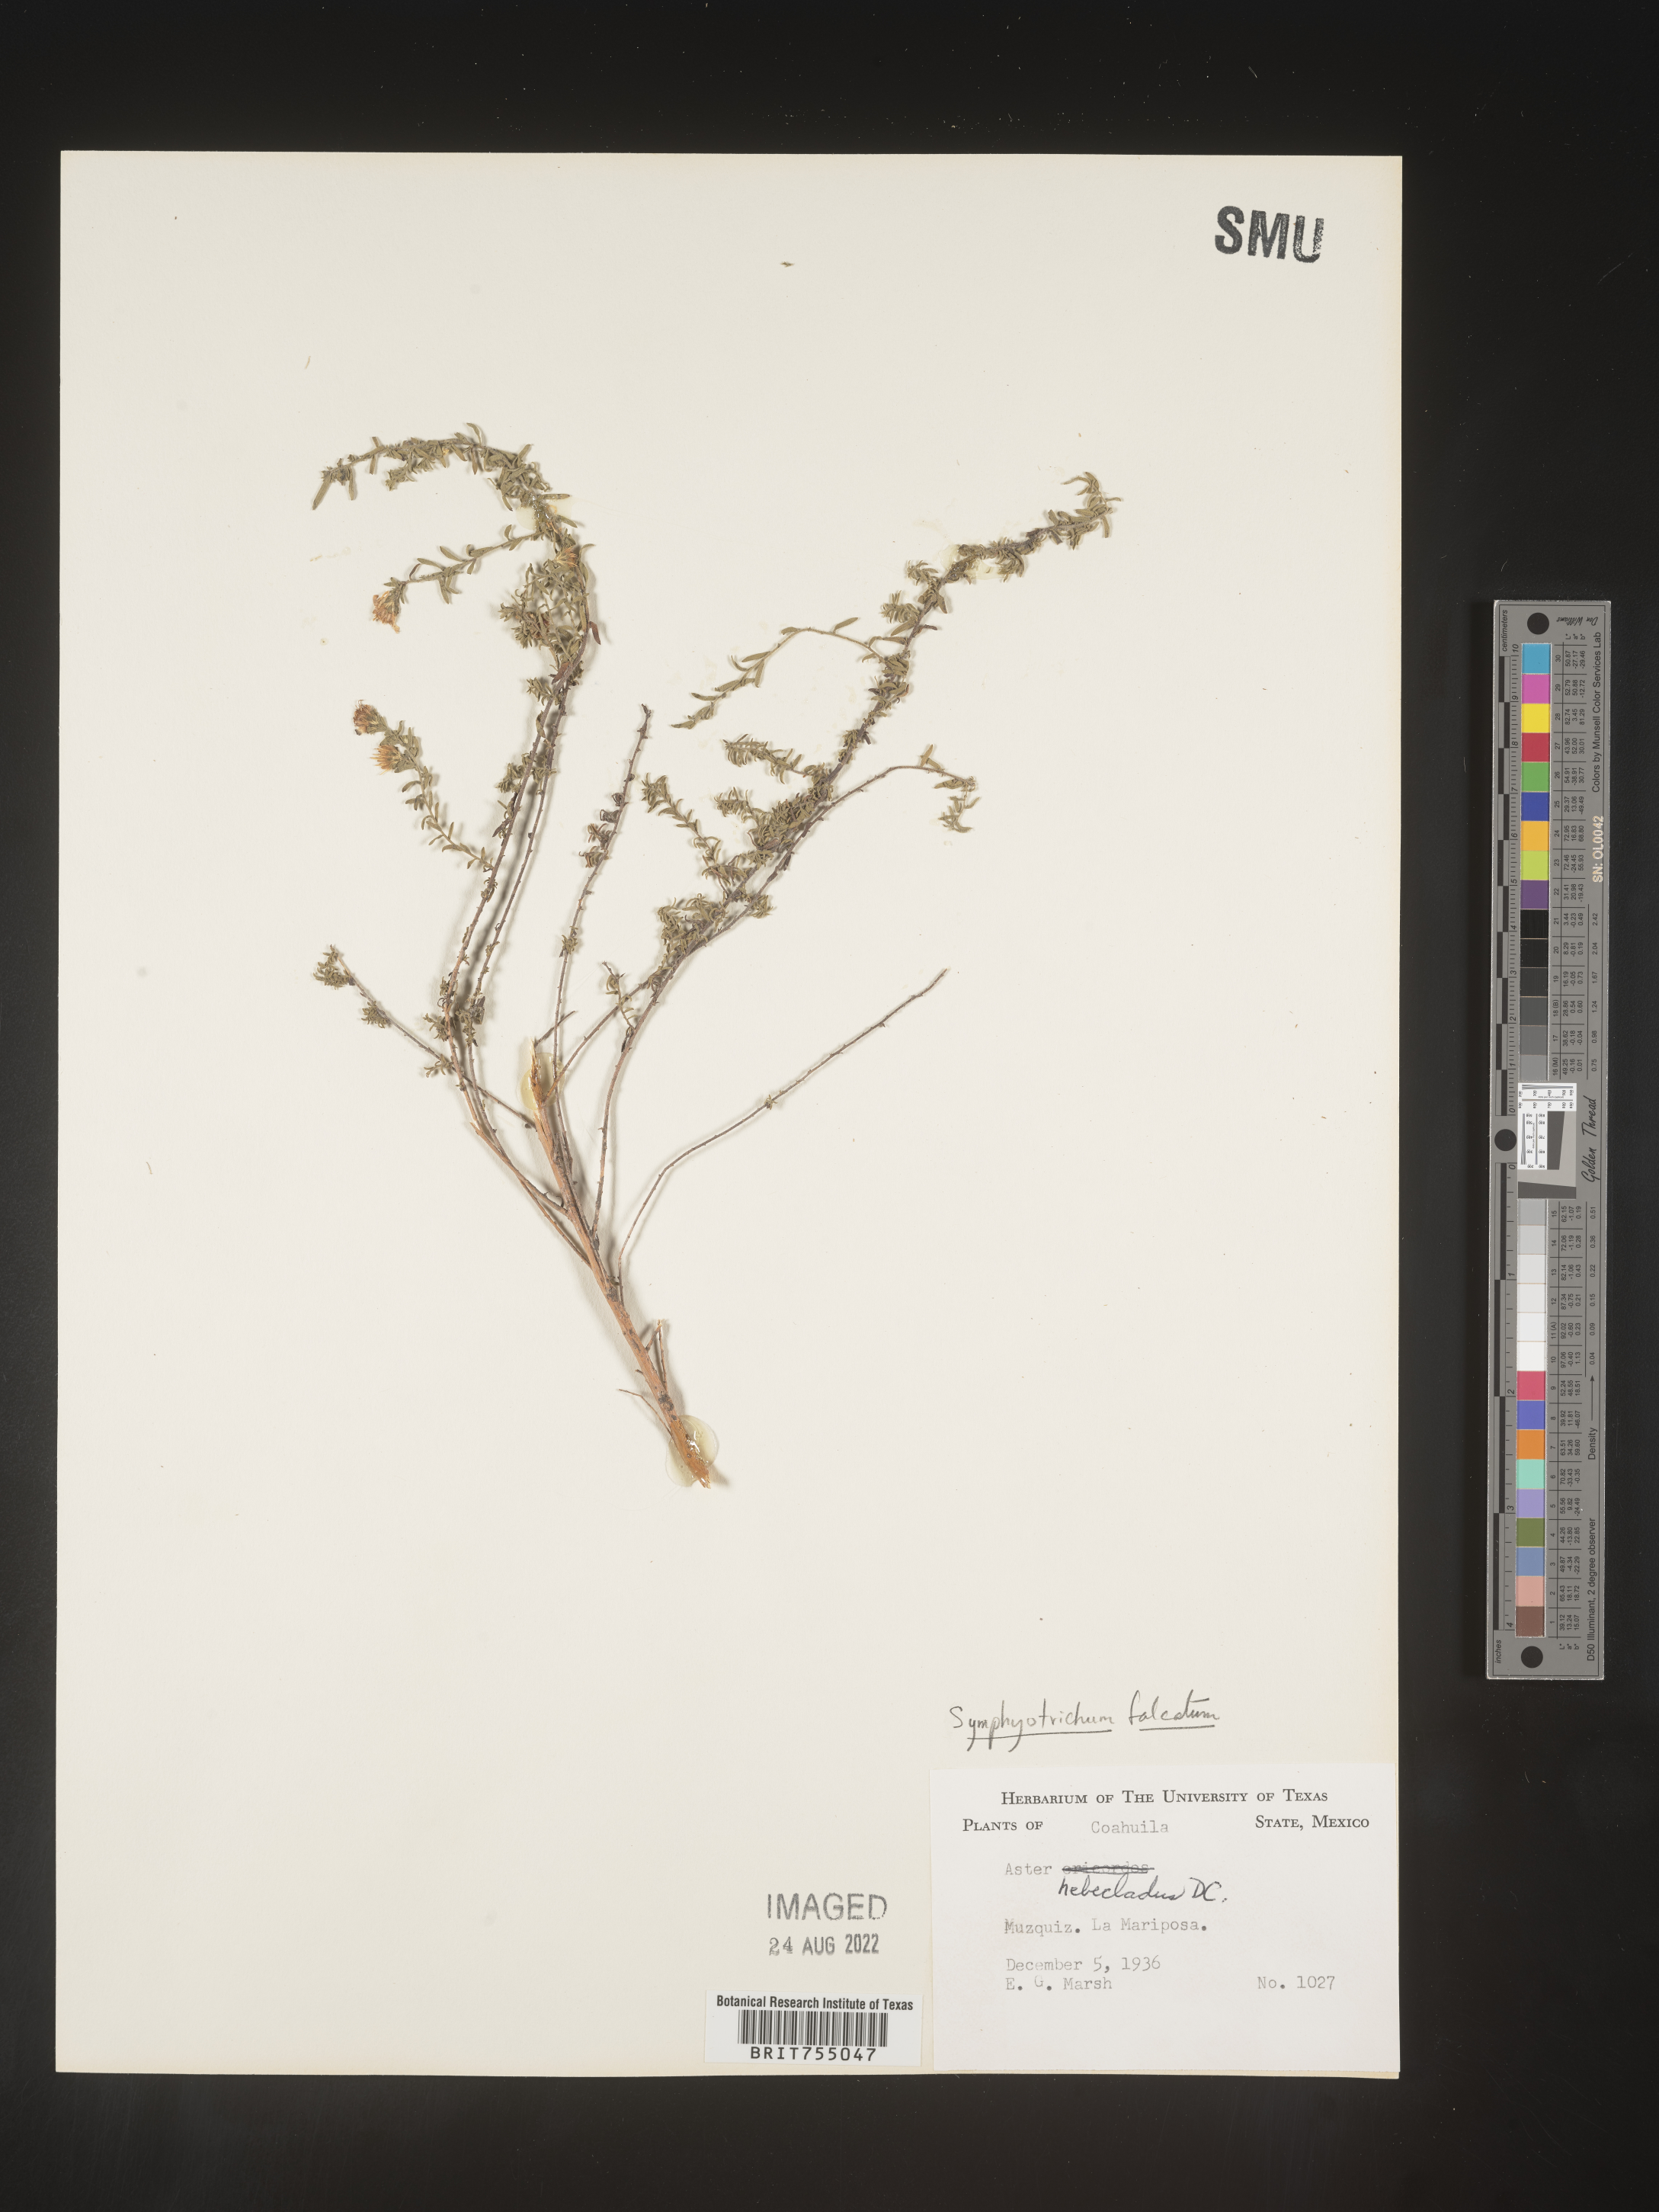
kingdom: Plantae
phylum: Tracheophyta
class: Magnoliopsida
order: Asterales
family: Asteraceae
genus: Symphyotrichum
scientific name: Symphyotrichum falcatum
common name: Creeping white prairie aster
